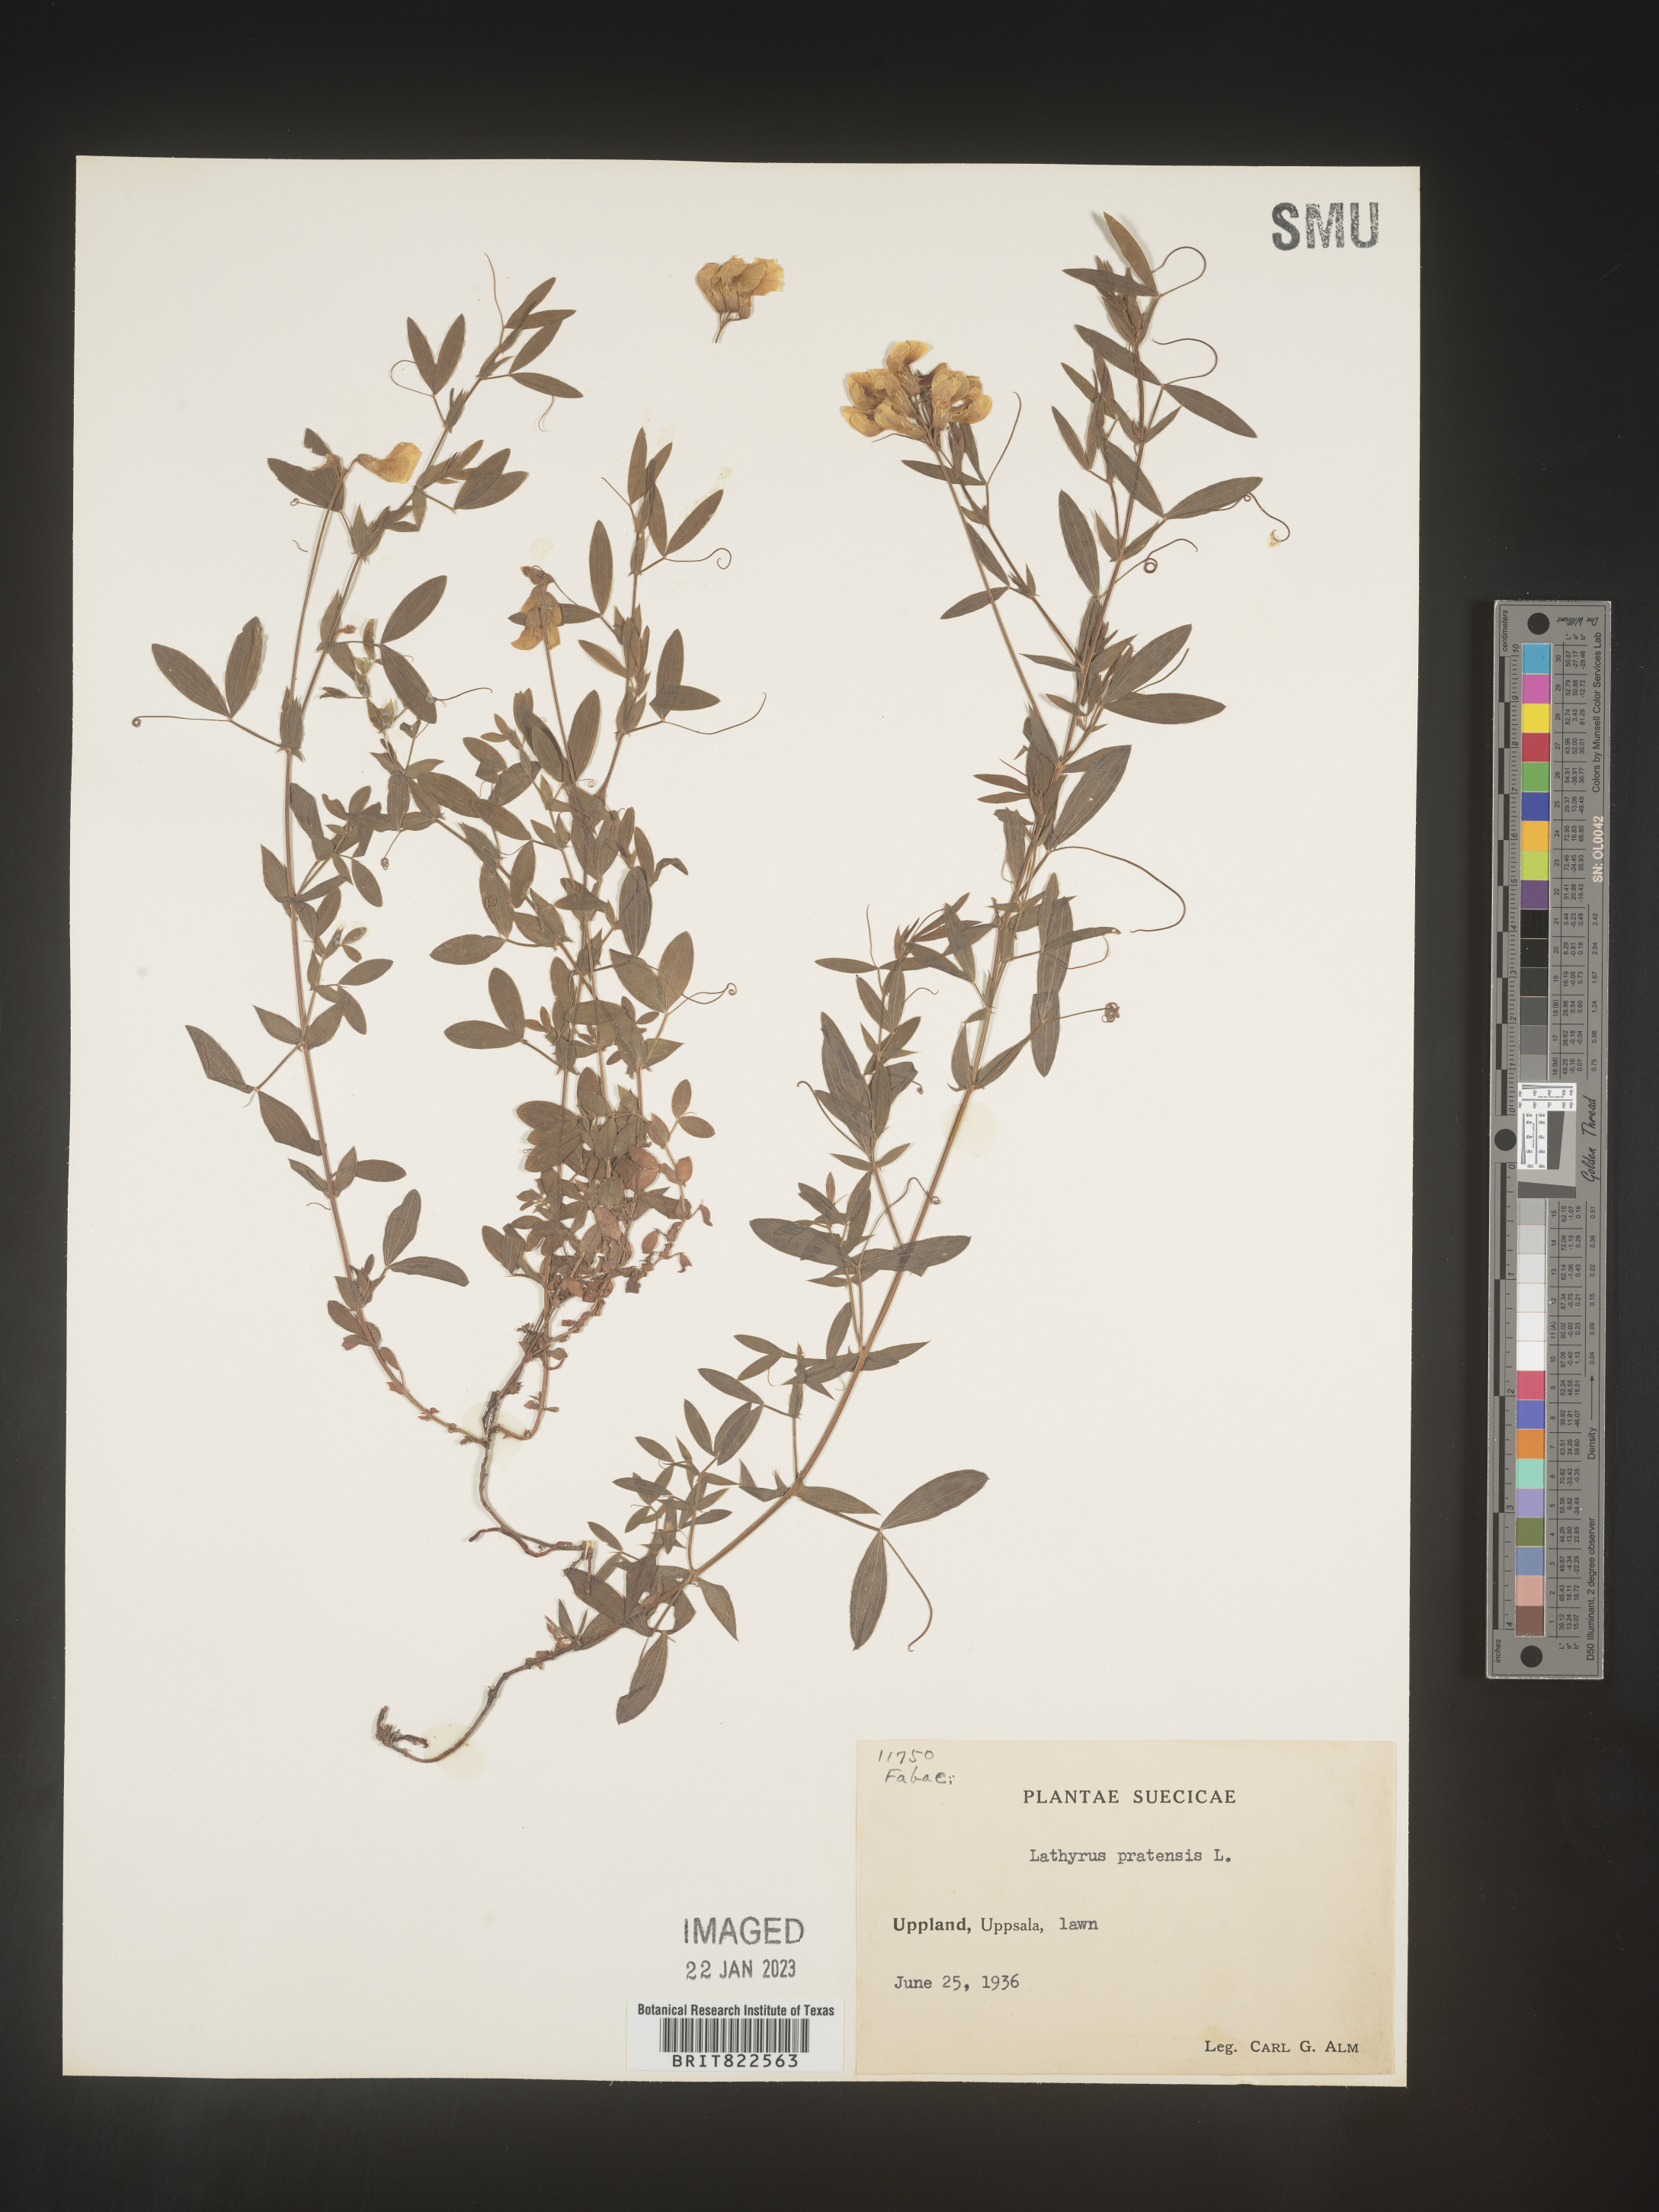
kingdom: Plantae
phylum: Tracheophyta
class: Magnoliopsida
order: Fabales
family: Fabaceae
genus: Lathyrus
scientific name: Lathyrus
